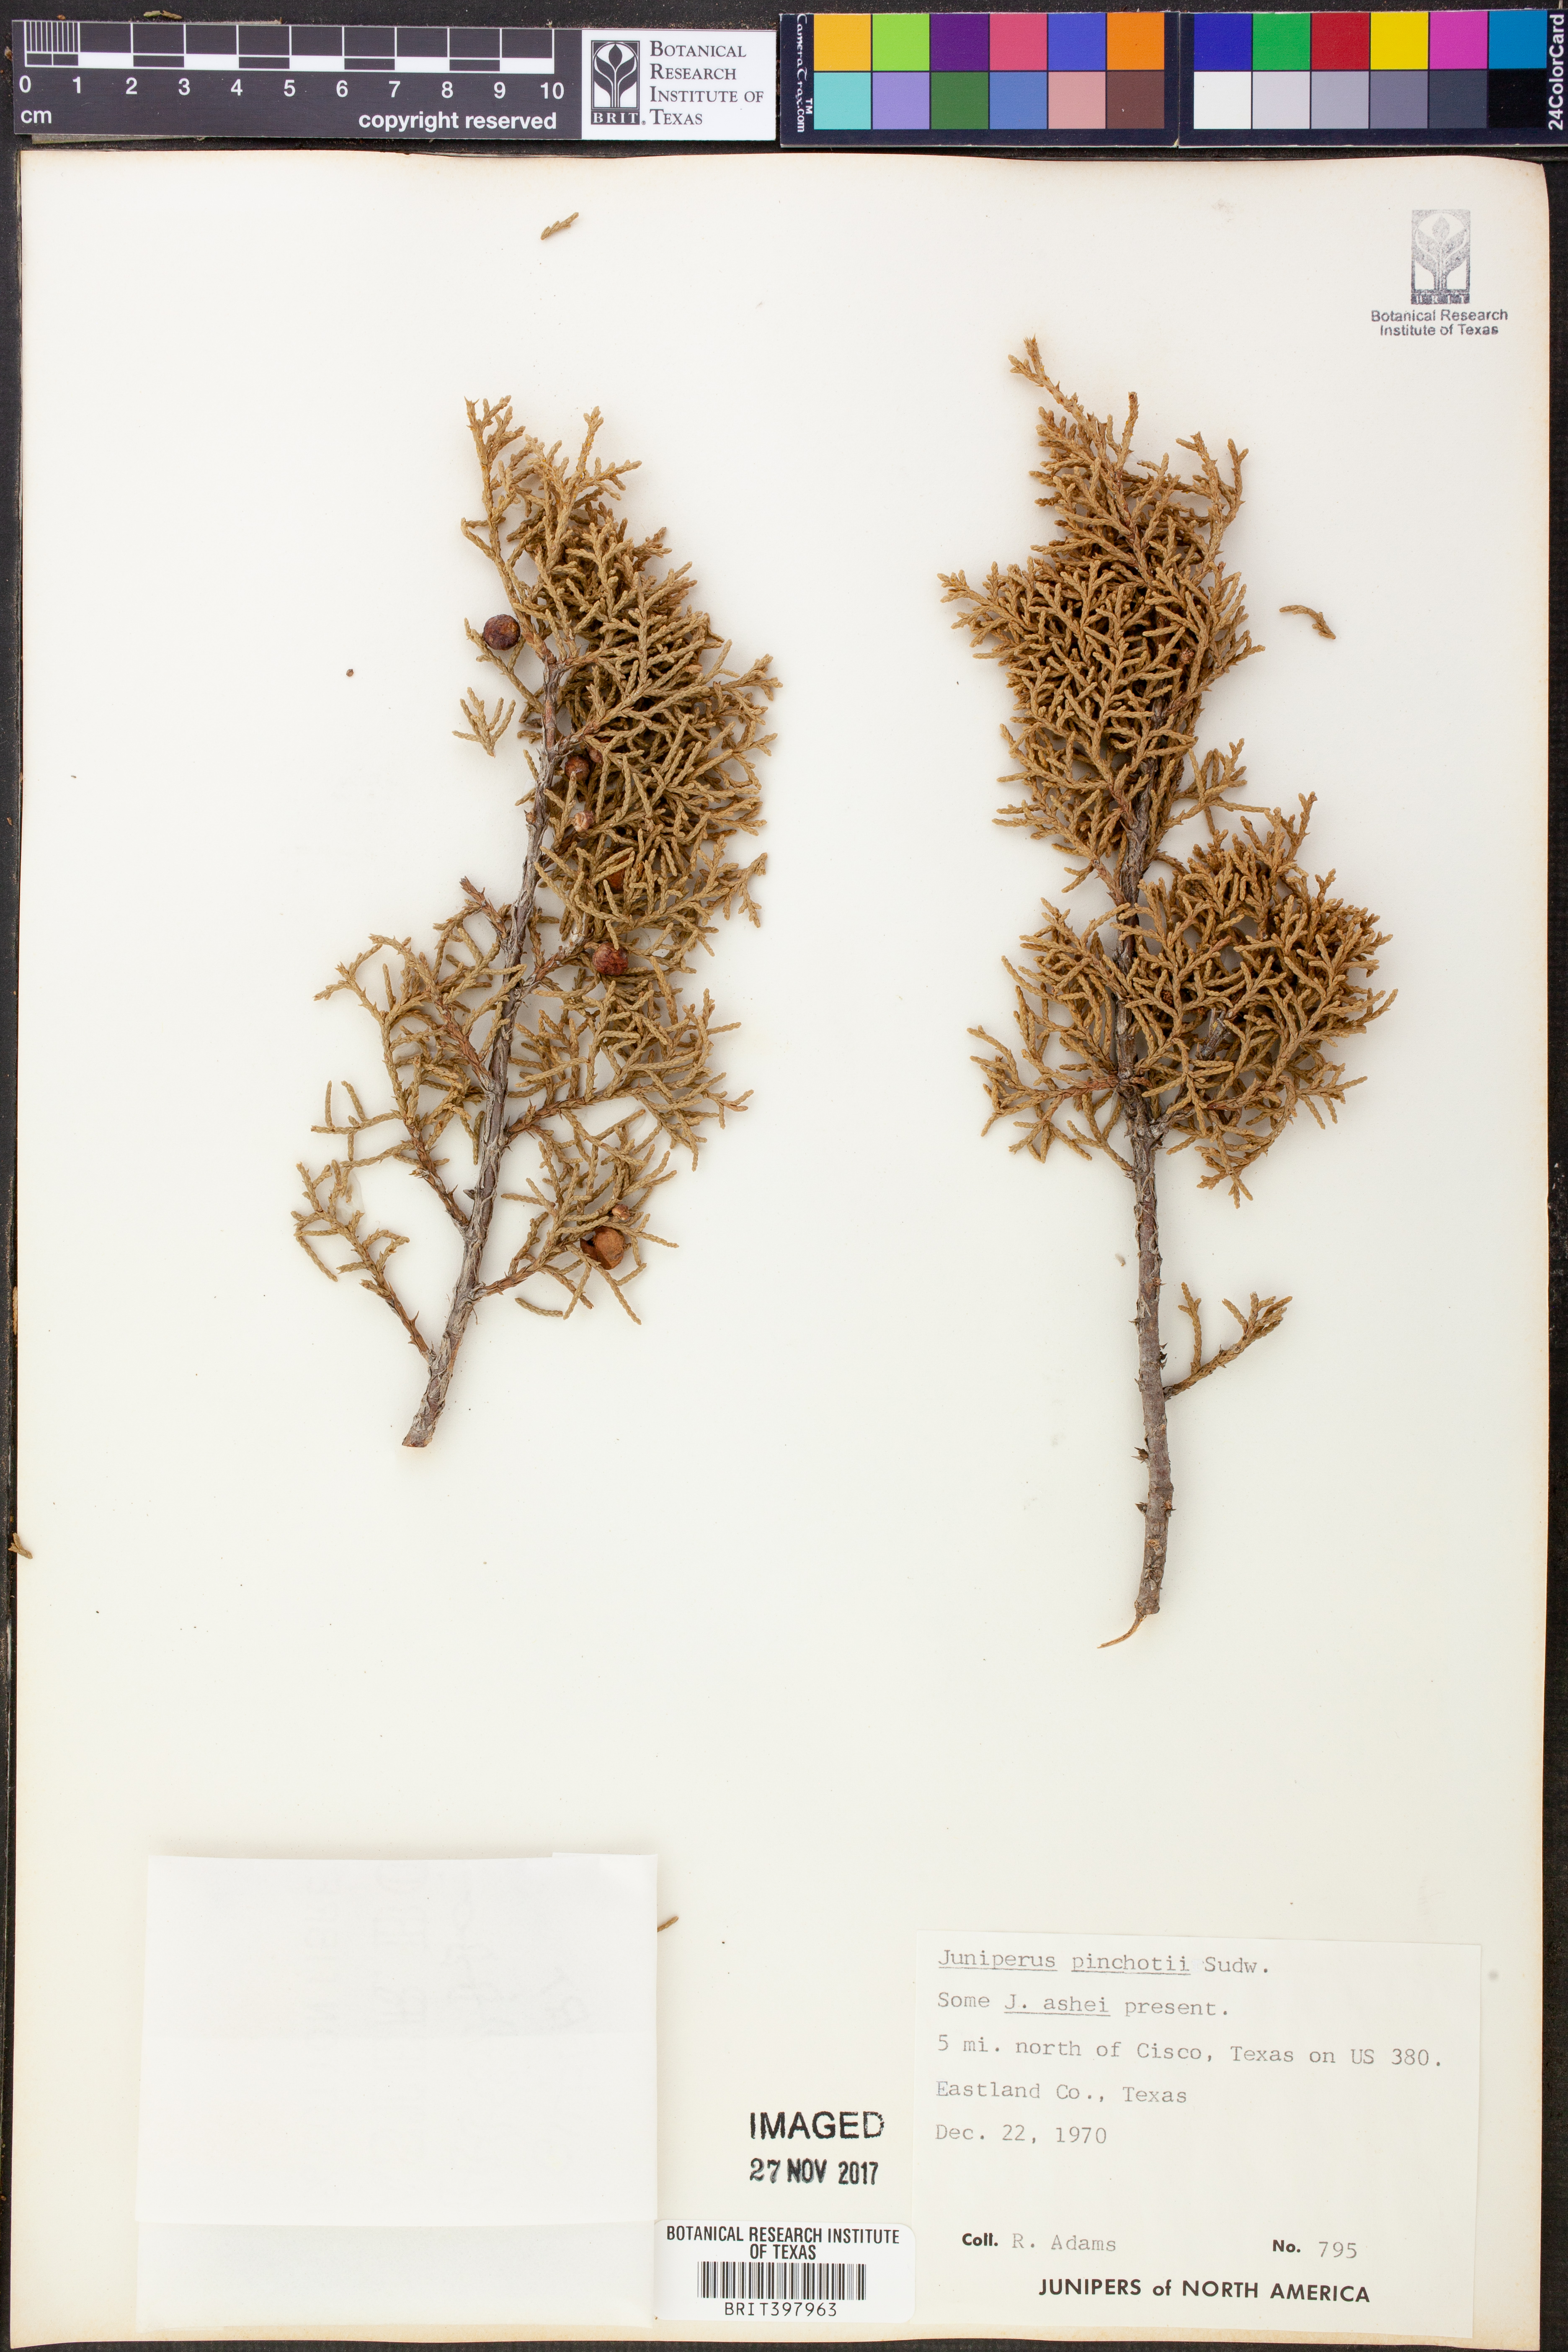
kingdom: Plantae
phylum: Tracheophyta
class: Pinopsida
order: Pinales
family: Cupressaceae
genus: Juniperus
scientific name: Juniperus pinchotii
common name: Pinchot juniper
